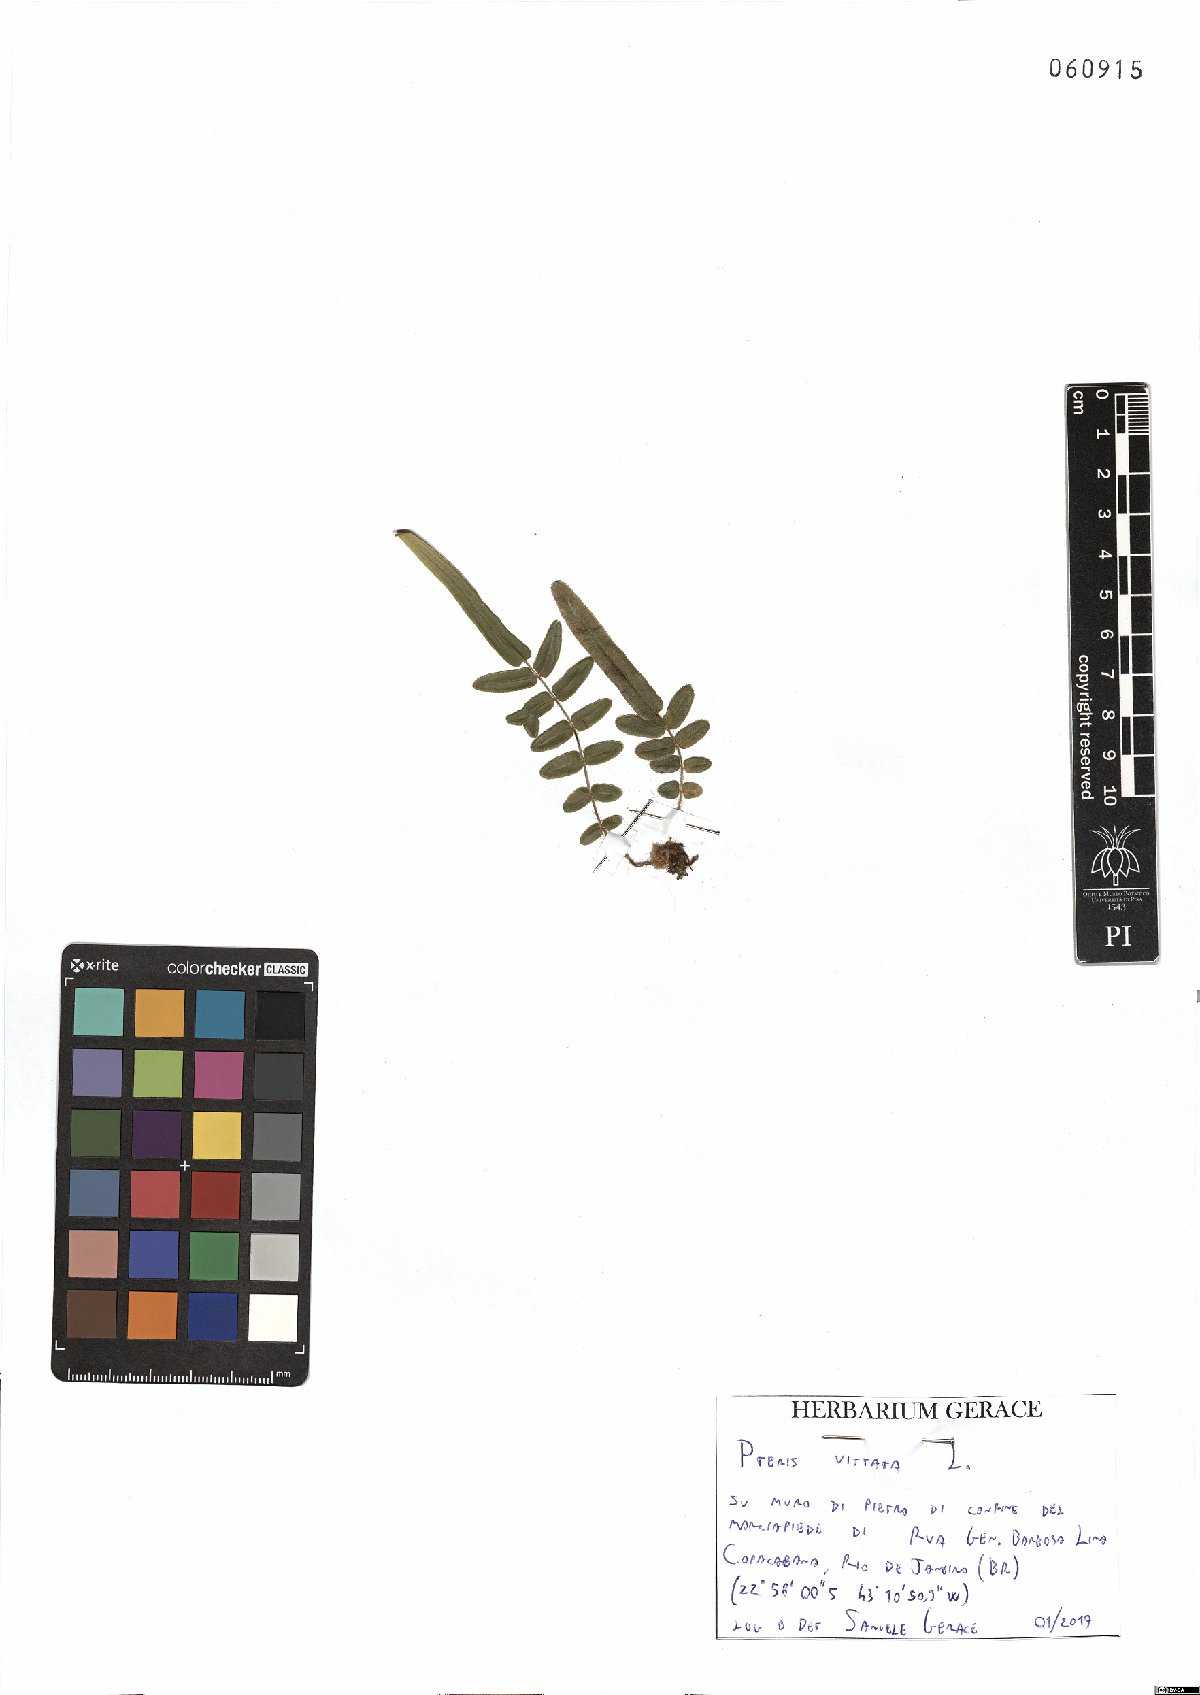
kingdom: Plantae
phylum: Tracheophyta
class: Polypodiopsida
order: Polypodiales
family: Pteridaceae
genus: Pteris
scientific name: Pteris vittata
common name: Ladder brake
